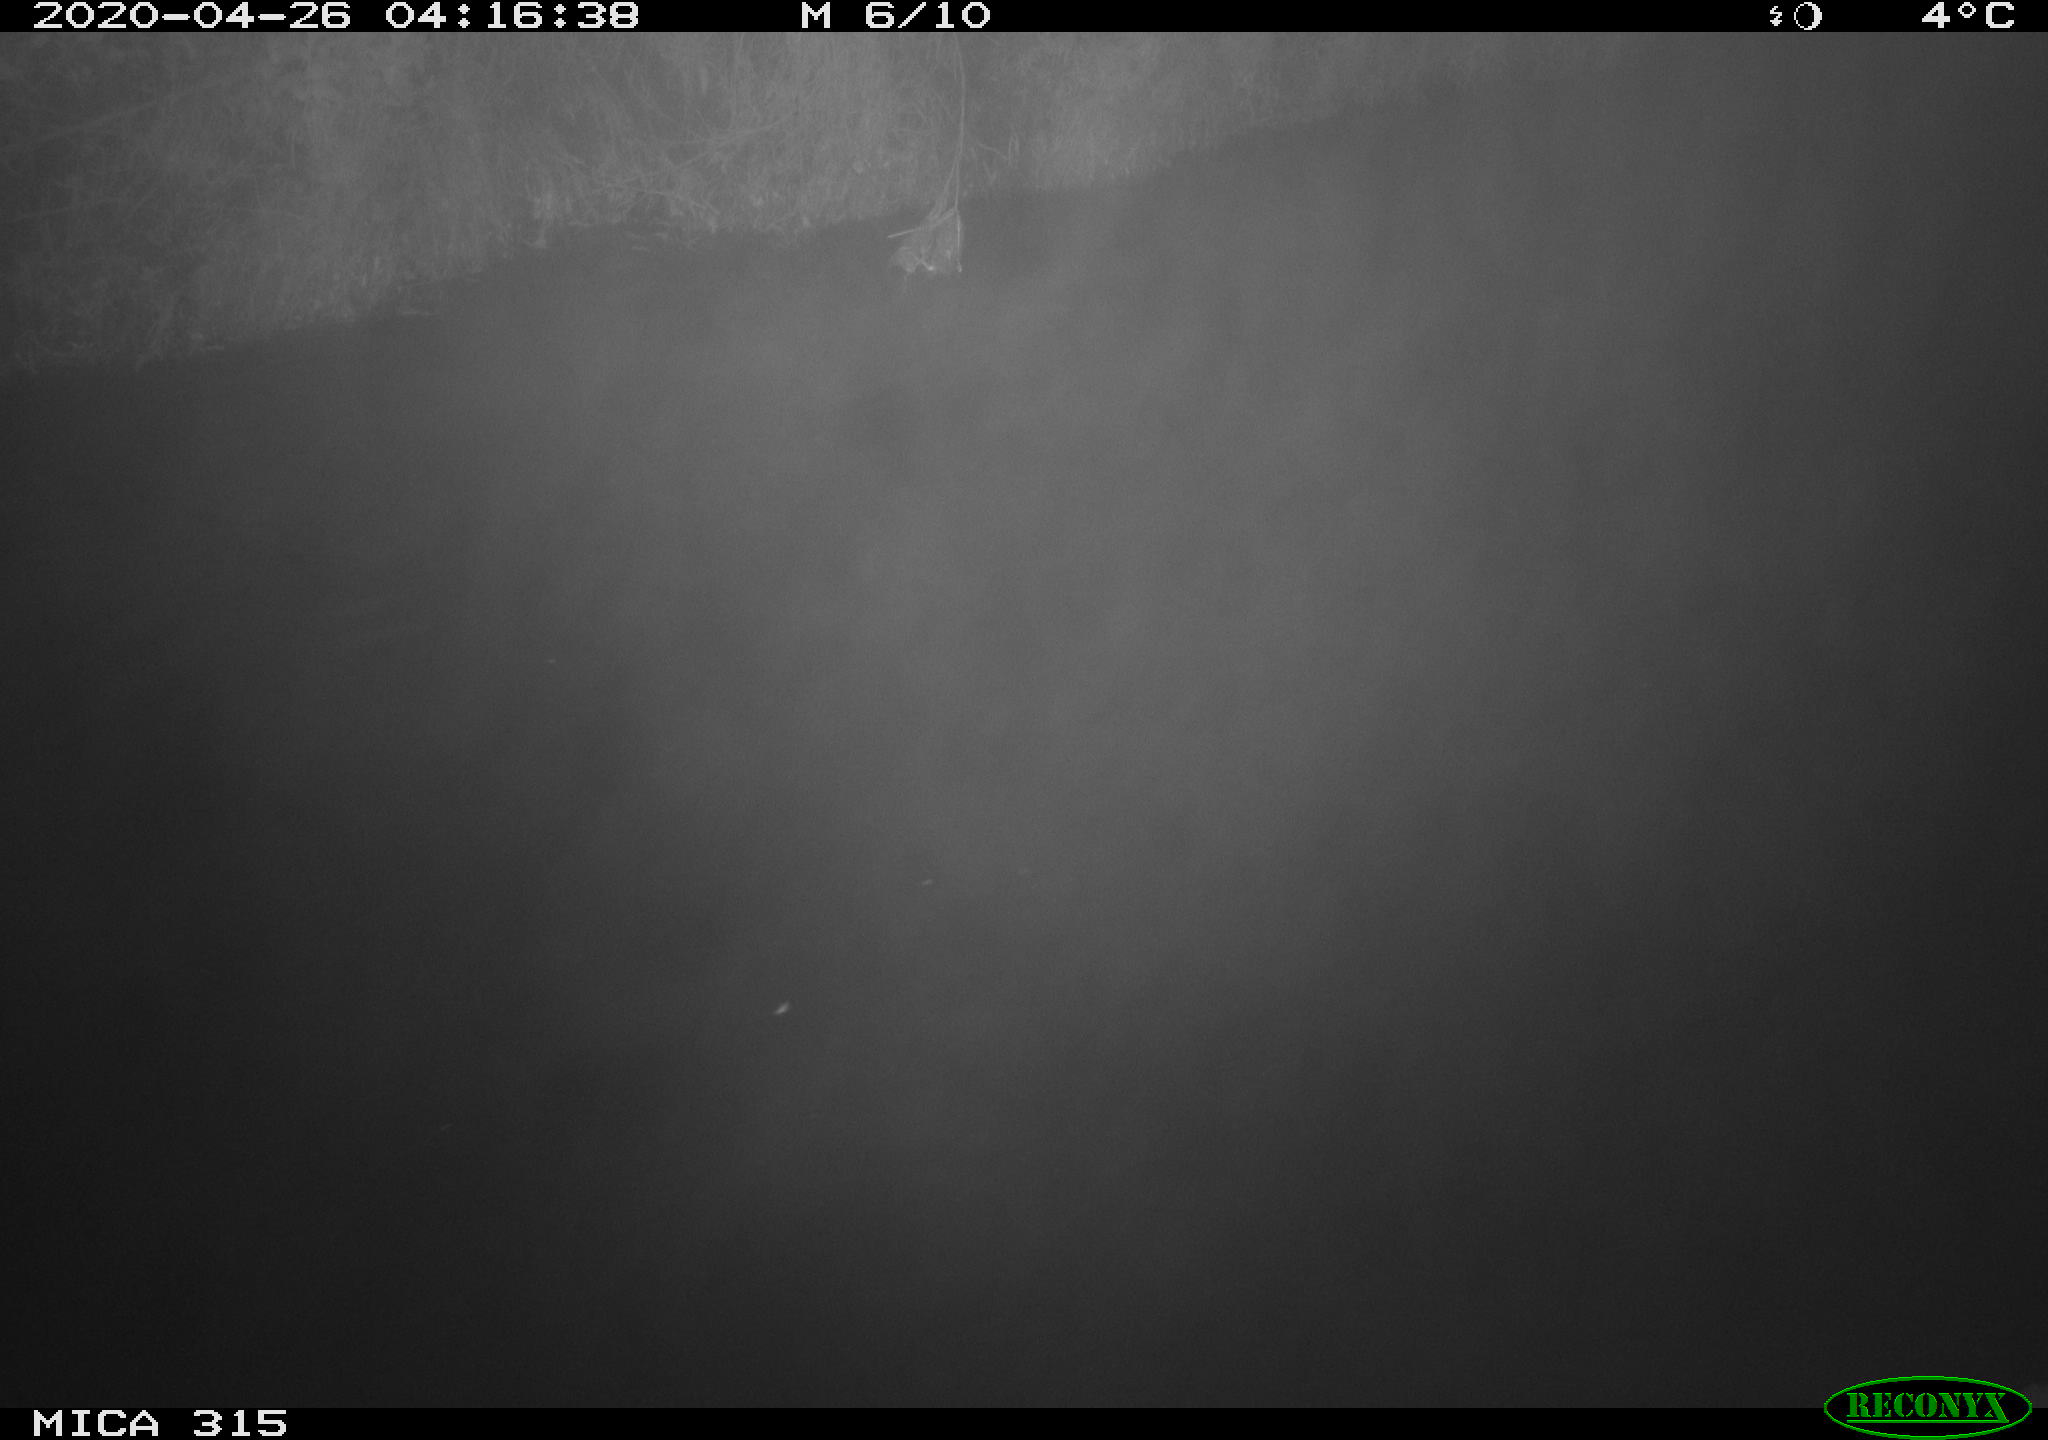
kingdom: Animalia
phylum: Chordata
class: Aves
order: Anseriformes
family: Anatidae
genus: Anas
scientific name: Anas platyrhynchos
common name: Mallard
